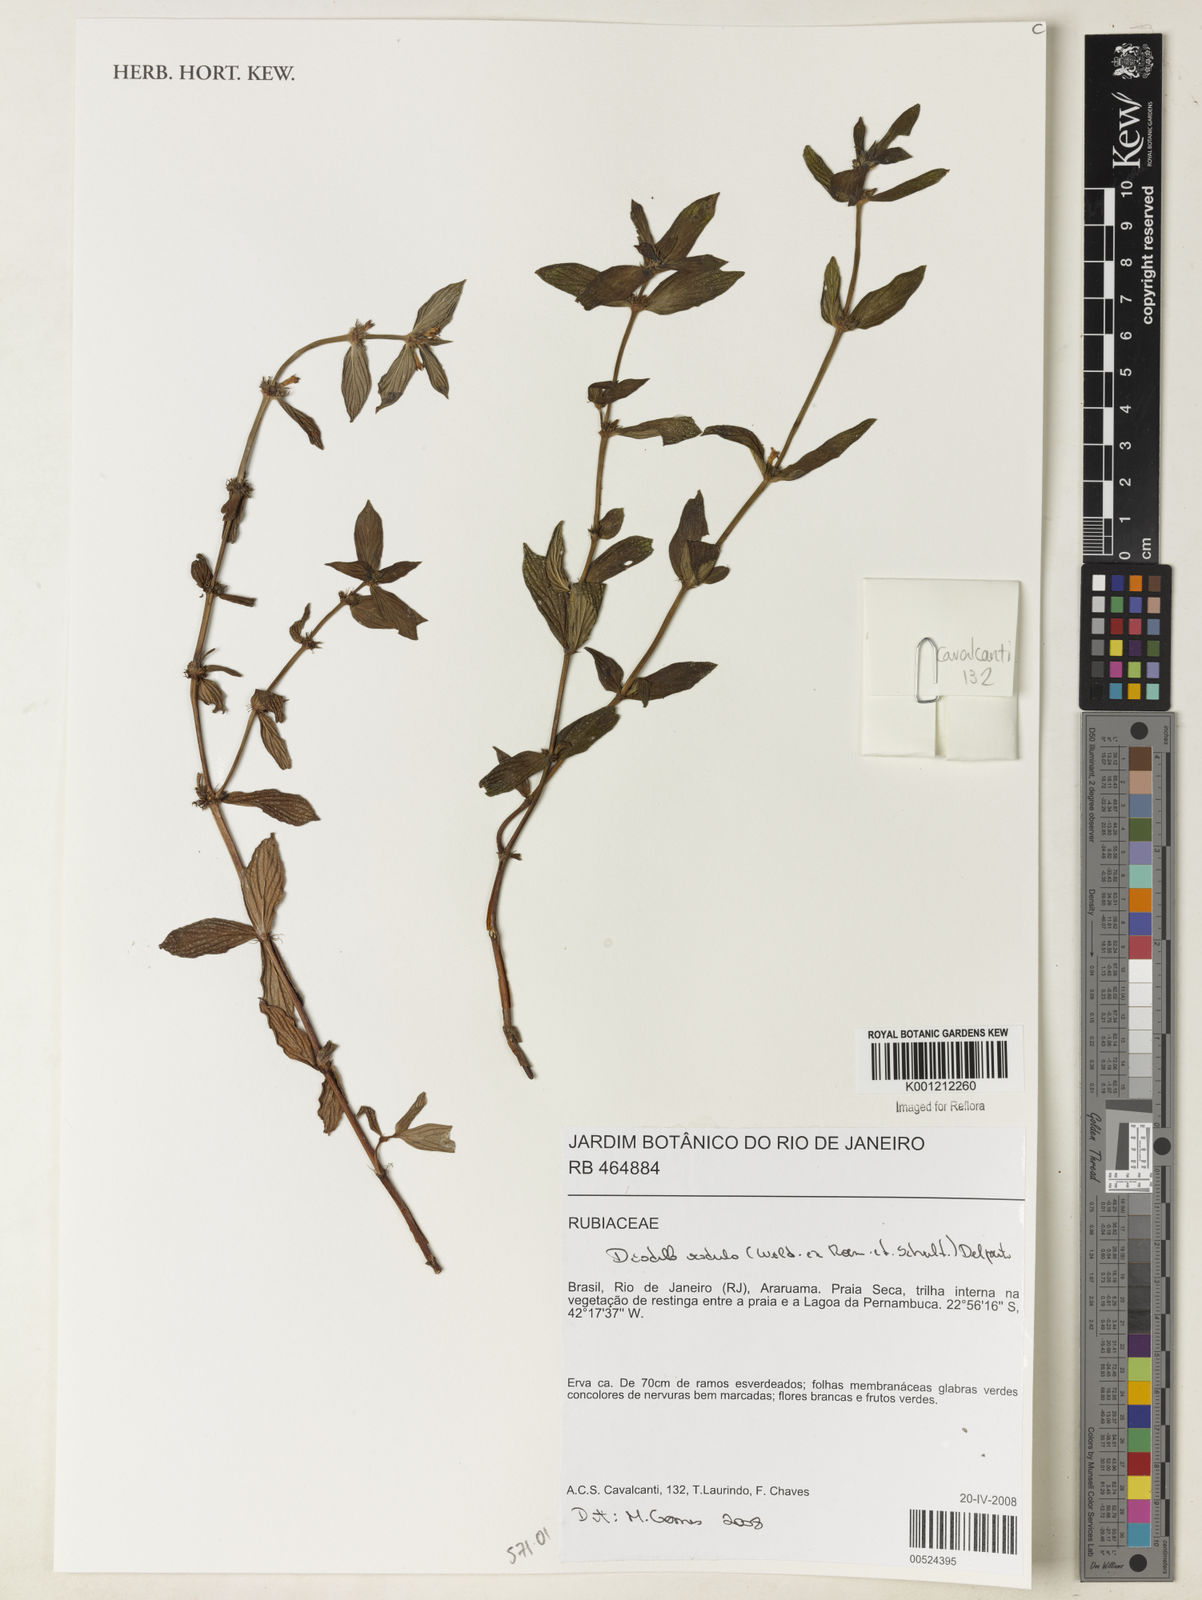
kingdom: Plantae
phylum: Tracheophyta
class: Magnoliopsida
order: Gentianales
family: Rubiaceae
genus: Hexasepalum
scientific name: Hexasepalum radulum
